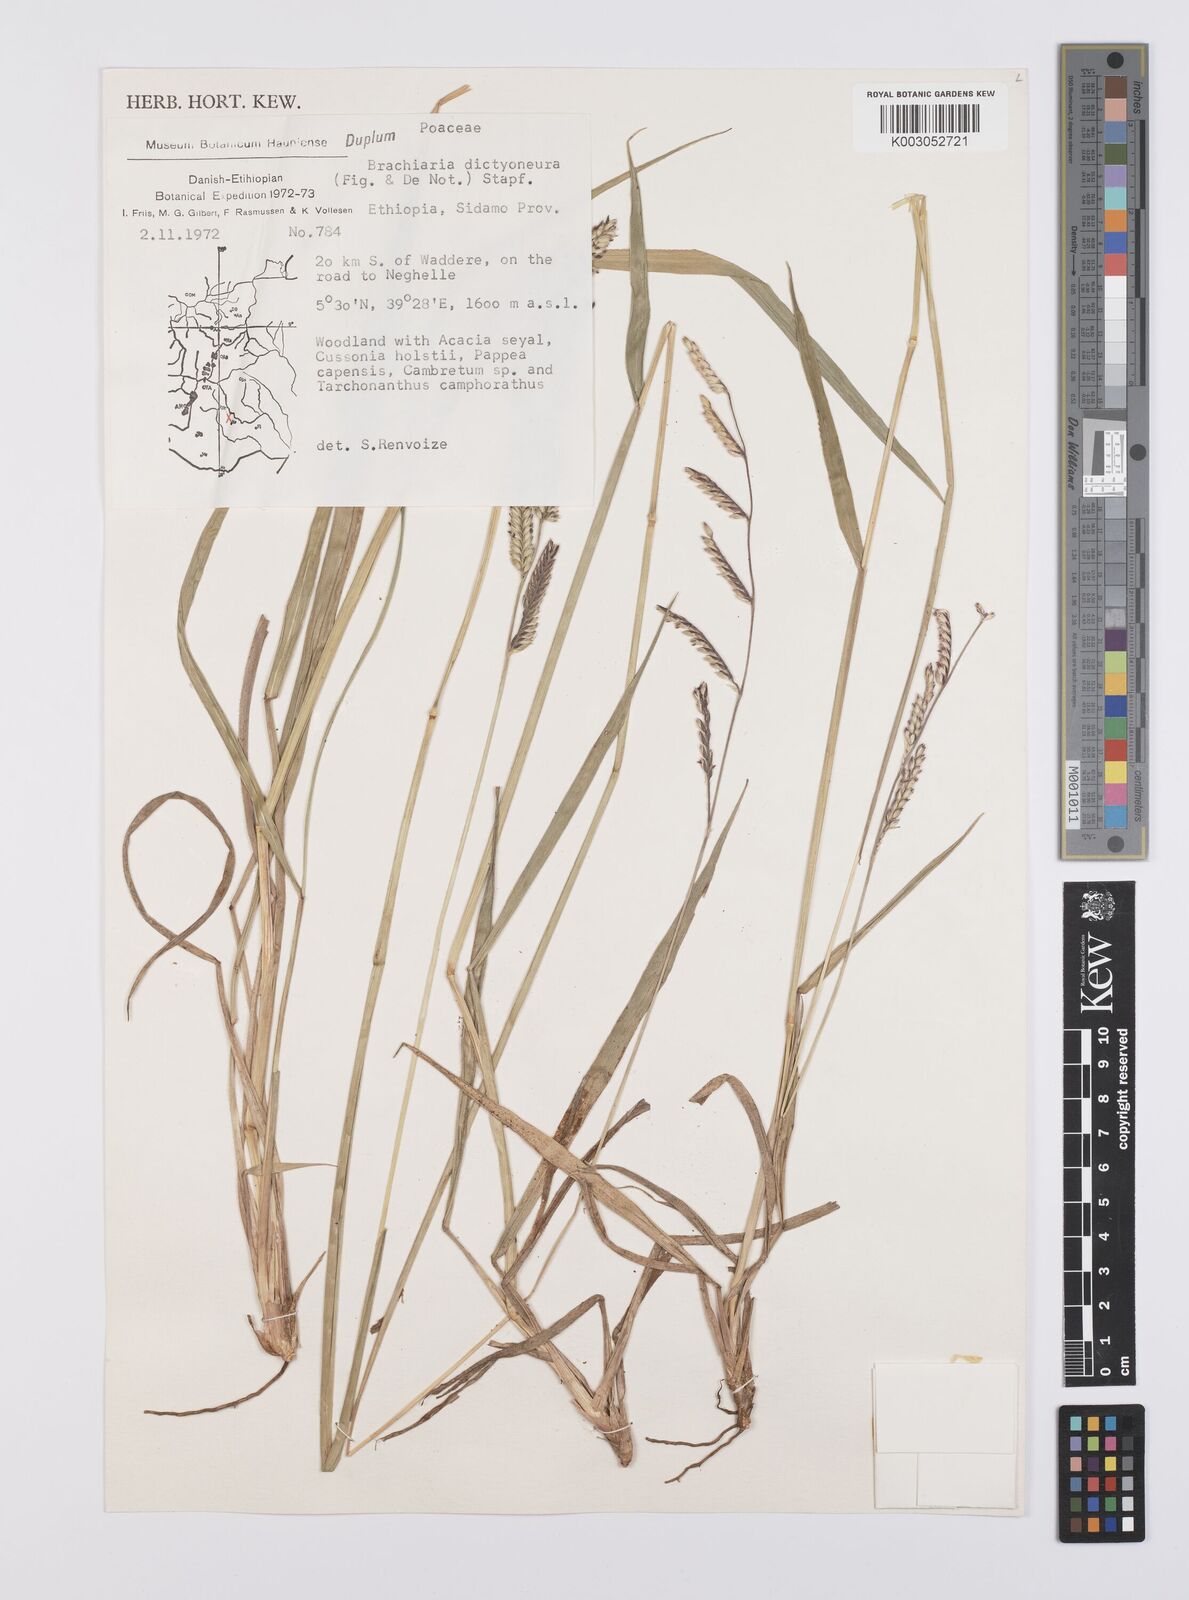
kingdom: Plantae
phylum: Tracheophyta
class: Liliopsida
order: Poales
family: Poaceae
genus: Urochloa
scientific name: Urochloa dictyoneura
